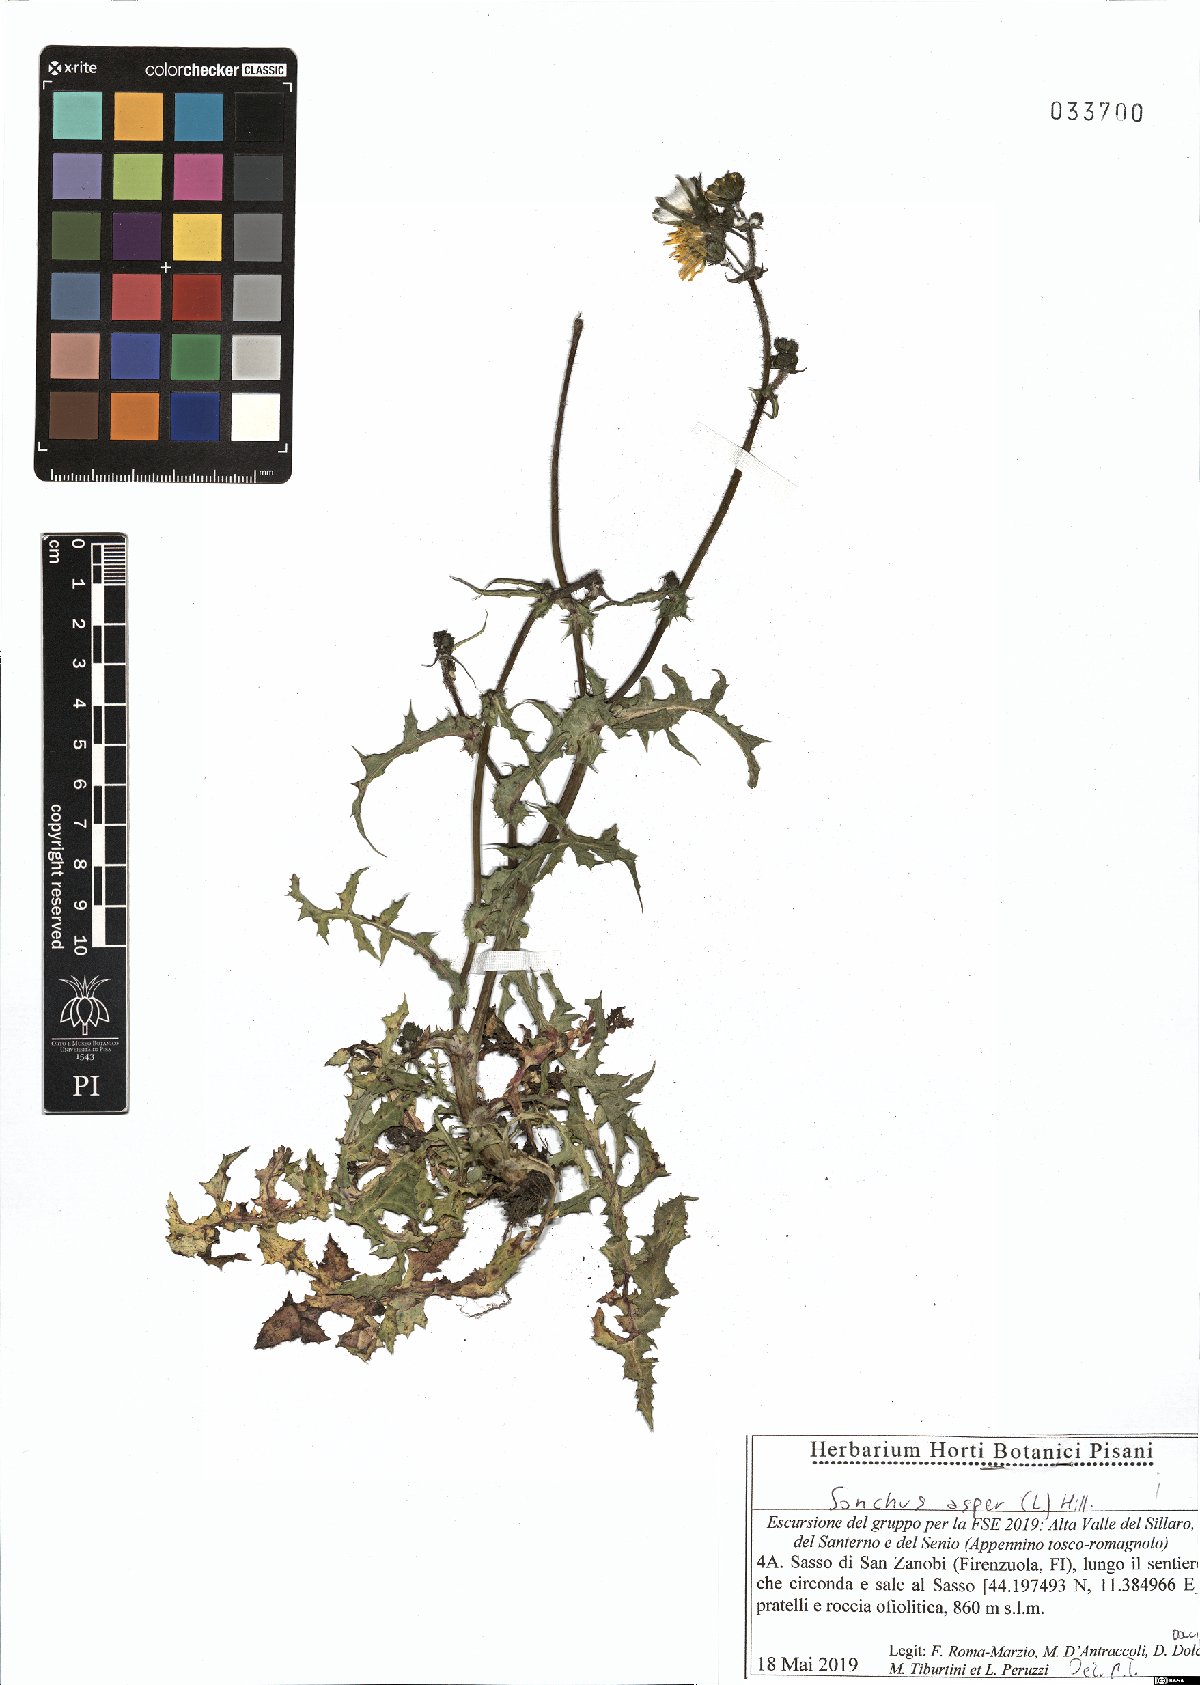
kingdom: Plantae
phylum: Tracheophyta
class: Magnoliopsida
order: Asterales
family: Asteraceae
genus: Sonchus
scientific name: Sonchus asper
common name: Prickly sow-thistle
